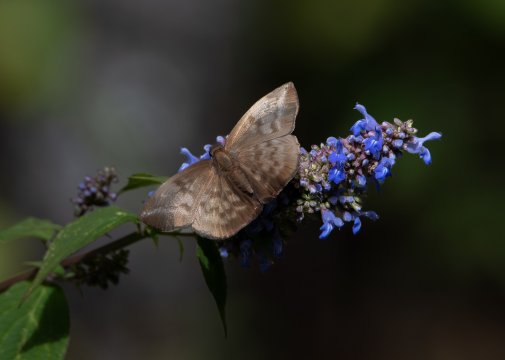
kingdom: Animalia
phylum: Arthropoda
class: Insecta
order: Lepidoptera
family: Hesperiidae
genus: Achlyodes
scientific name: Achlyodes pallida
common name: Pale Sicklewing
